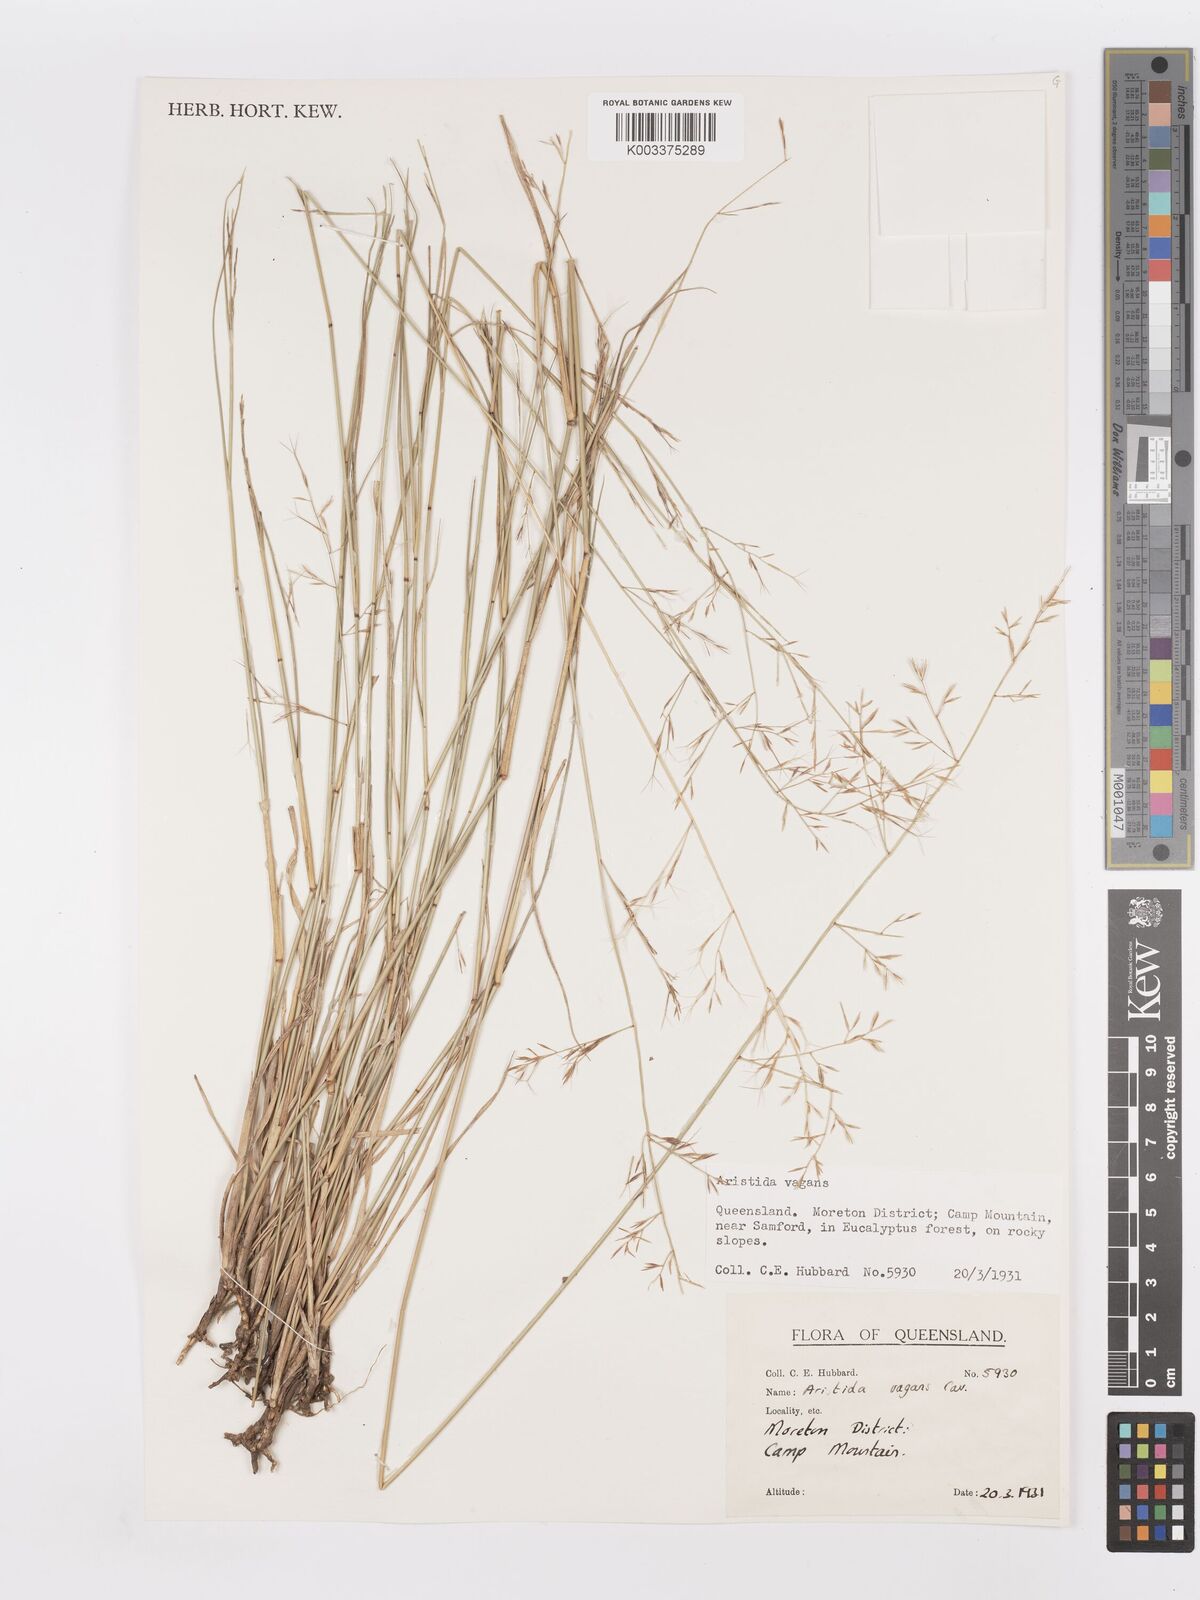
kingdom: Plantae
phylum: Tracheophyta
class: Liliopsida
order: Poales
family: Poaceae
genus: Aristida
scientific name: Aristida vagans
